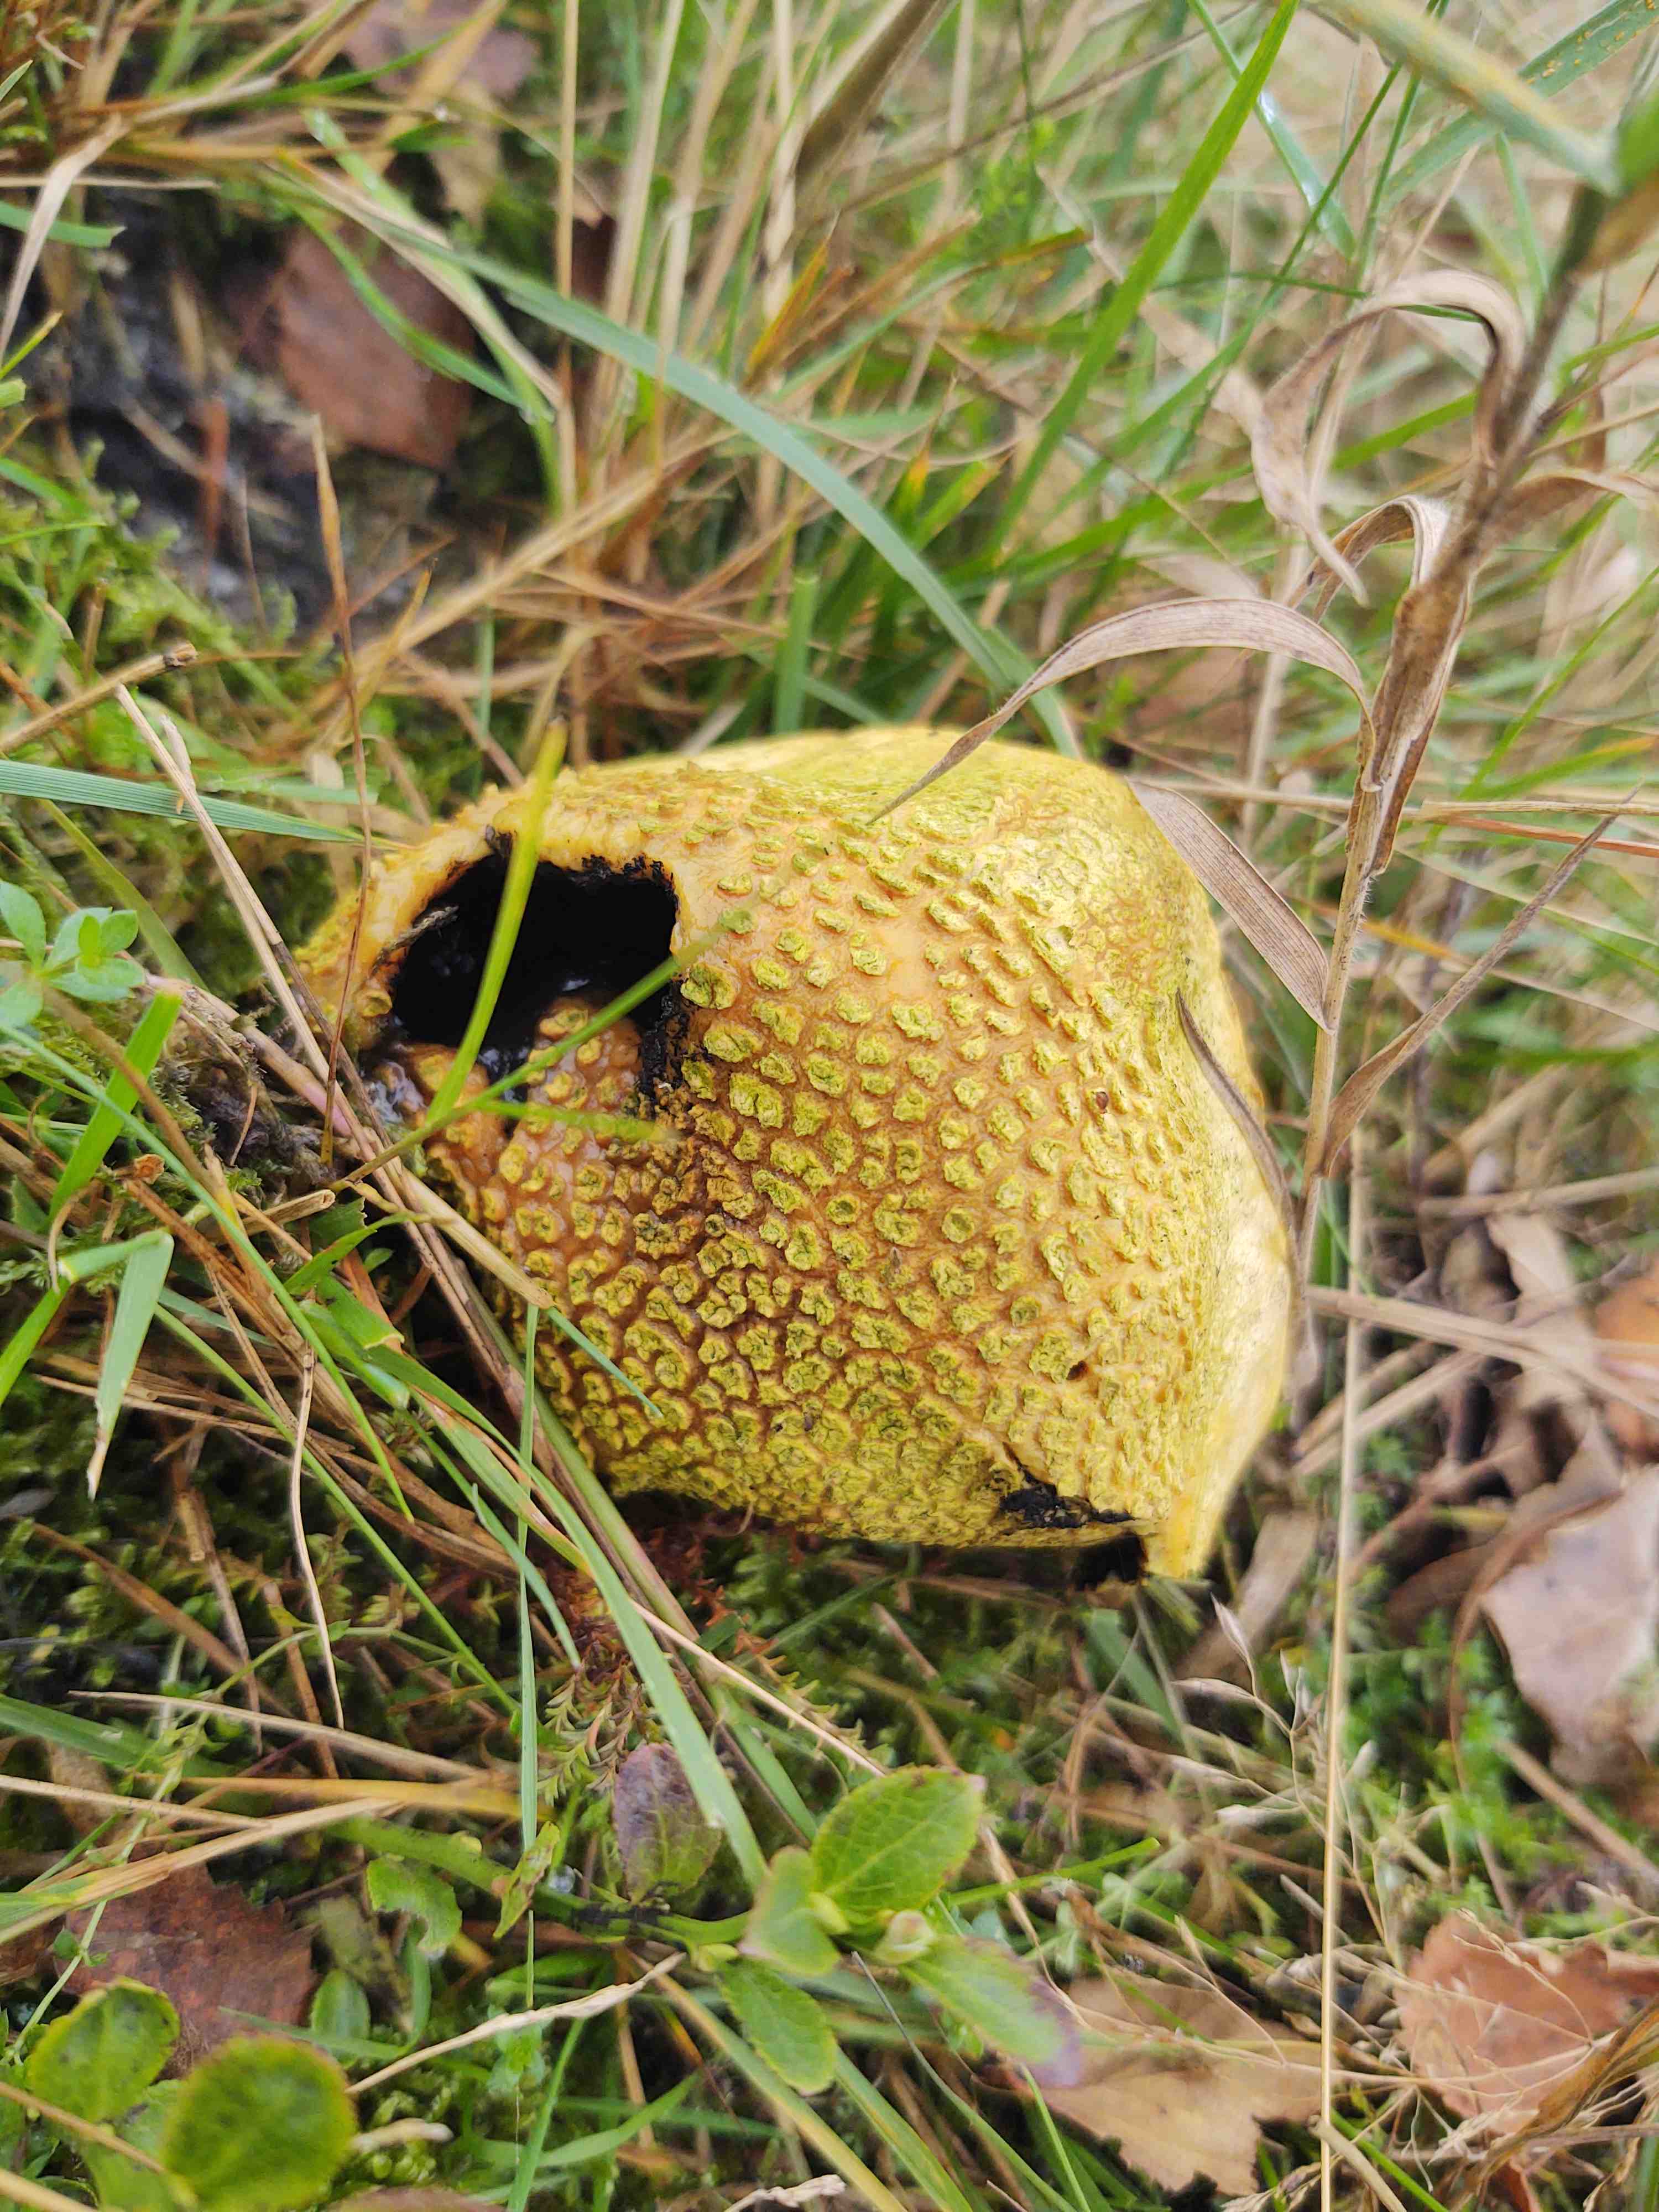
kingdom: Fungi
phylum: Basidiomycota
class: Agaricomycetes
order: Boletales
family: Sclerodermataceae
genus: Scleroderma
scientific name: Scleroderma citrinum
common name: almindelig bruskbold
